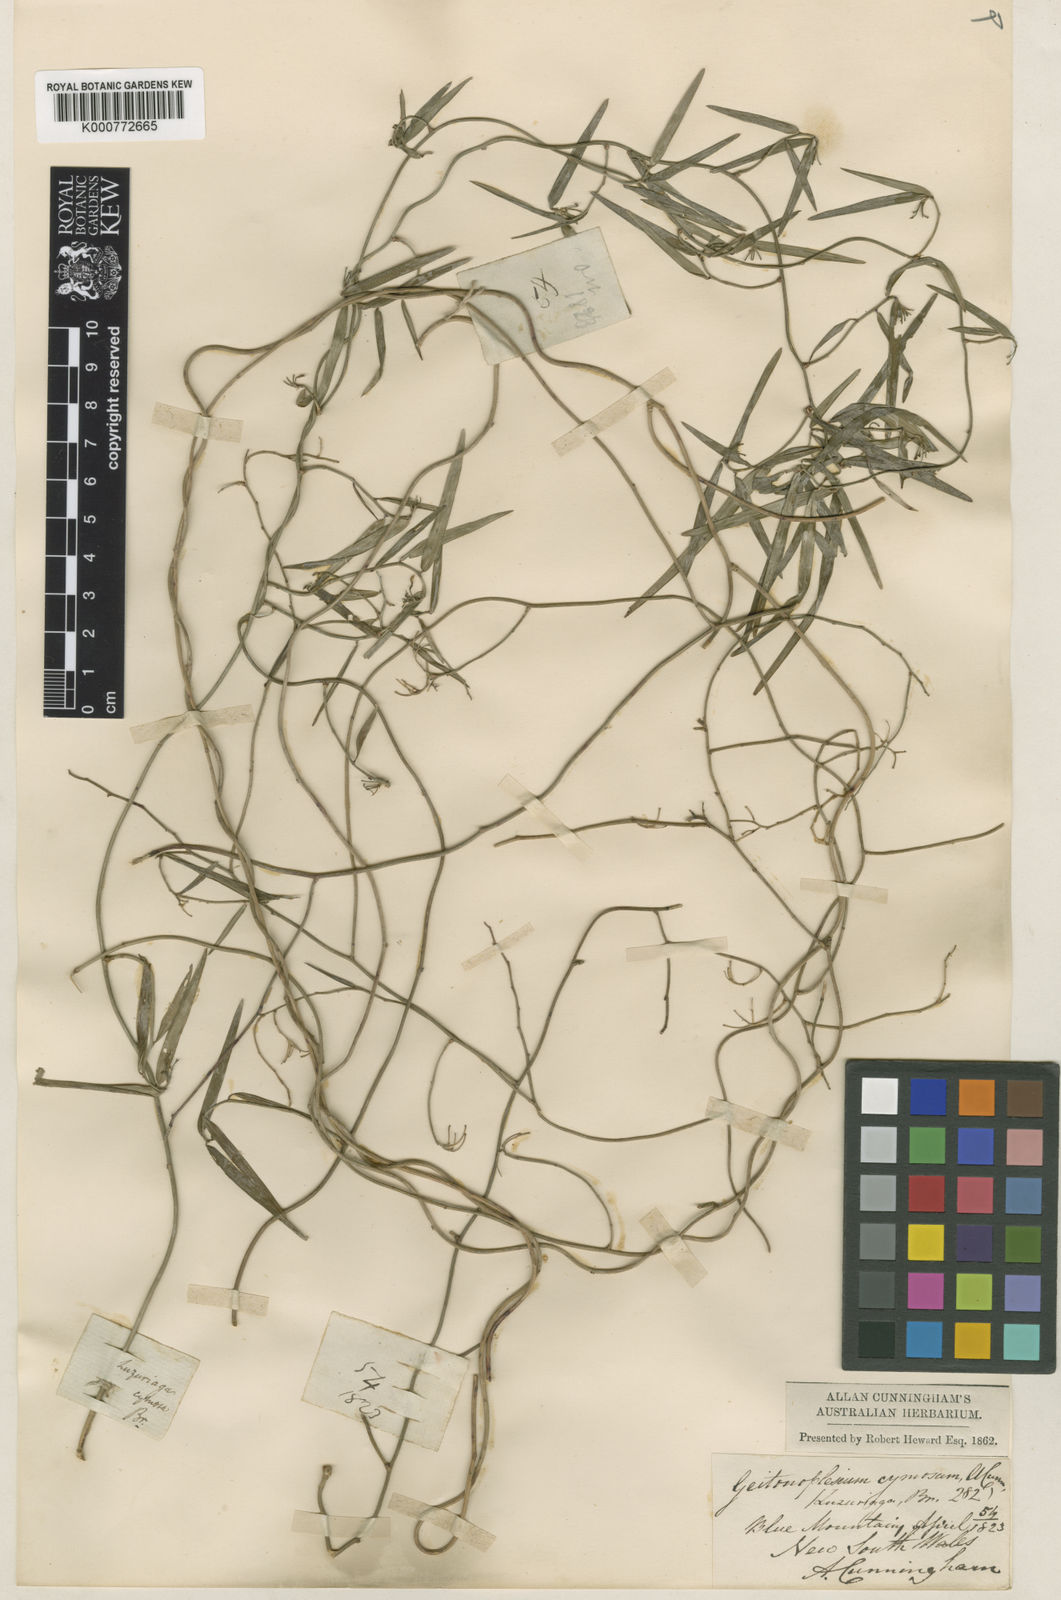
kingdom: Plantae
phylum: Tracheophyta
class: Liliopsida
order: Asparagales
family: Asphodelaceae
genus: Geitonoplesium
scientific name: Geitonoplesium
